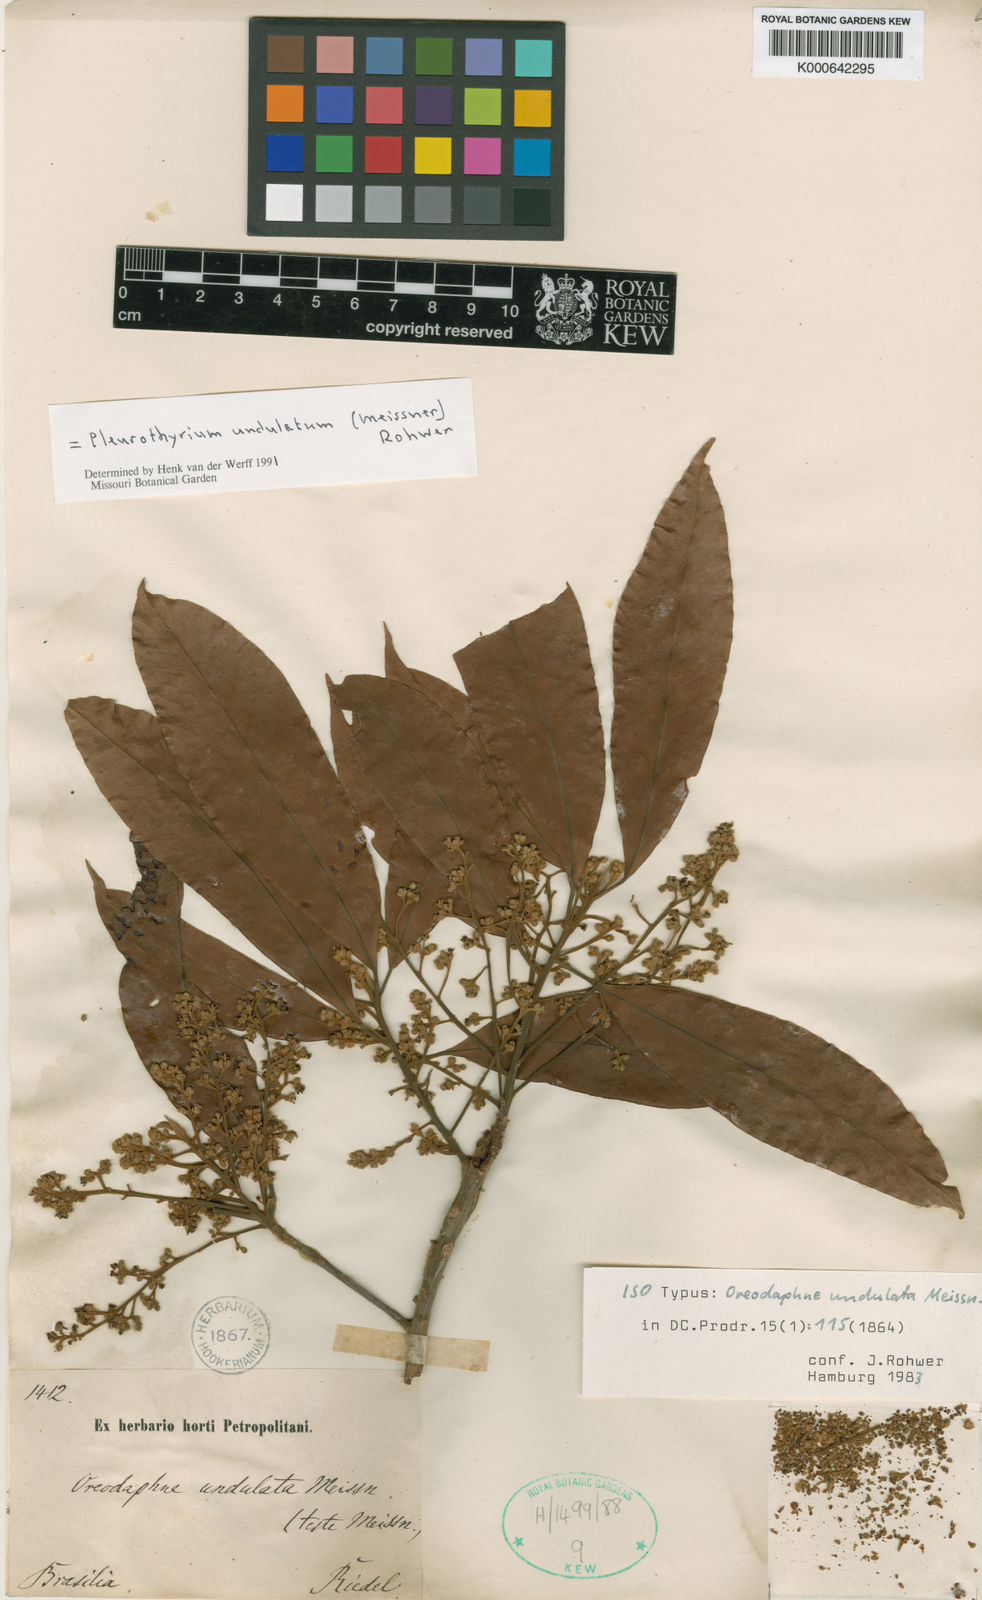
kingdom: Plantae
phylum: Tracheophyta
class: Magnoliopsida
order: Laurales
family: Lauraceae
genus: Pleurothyrium
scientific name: Pleurothyrium undulatum
